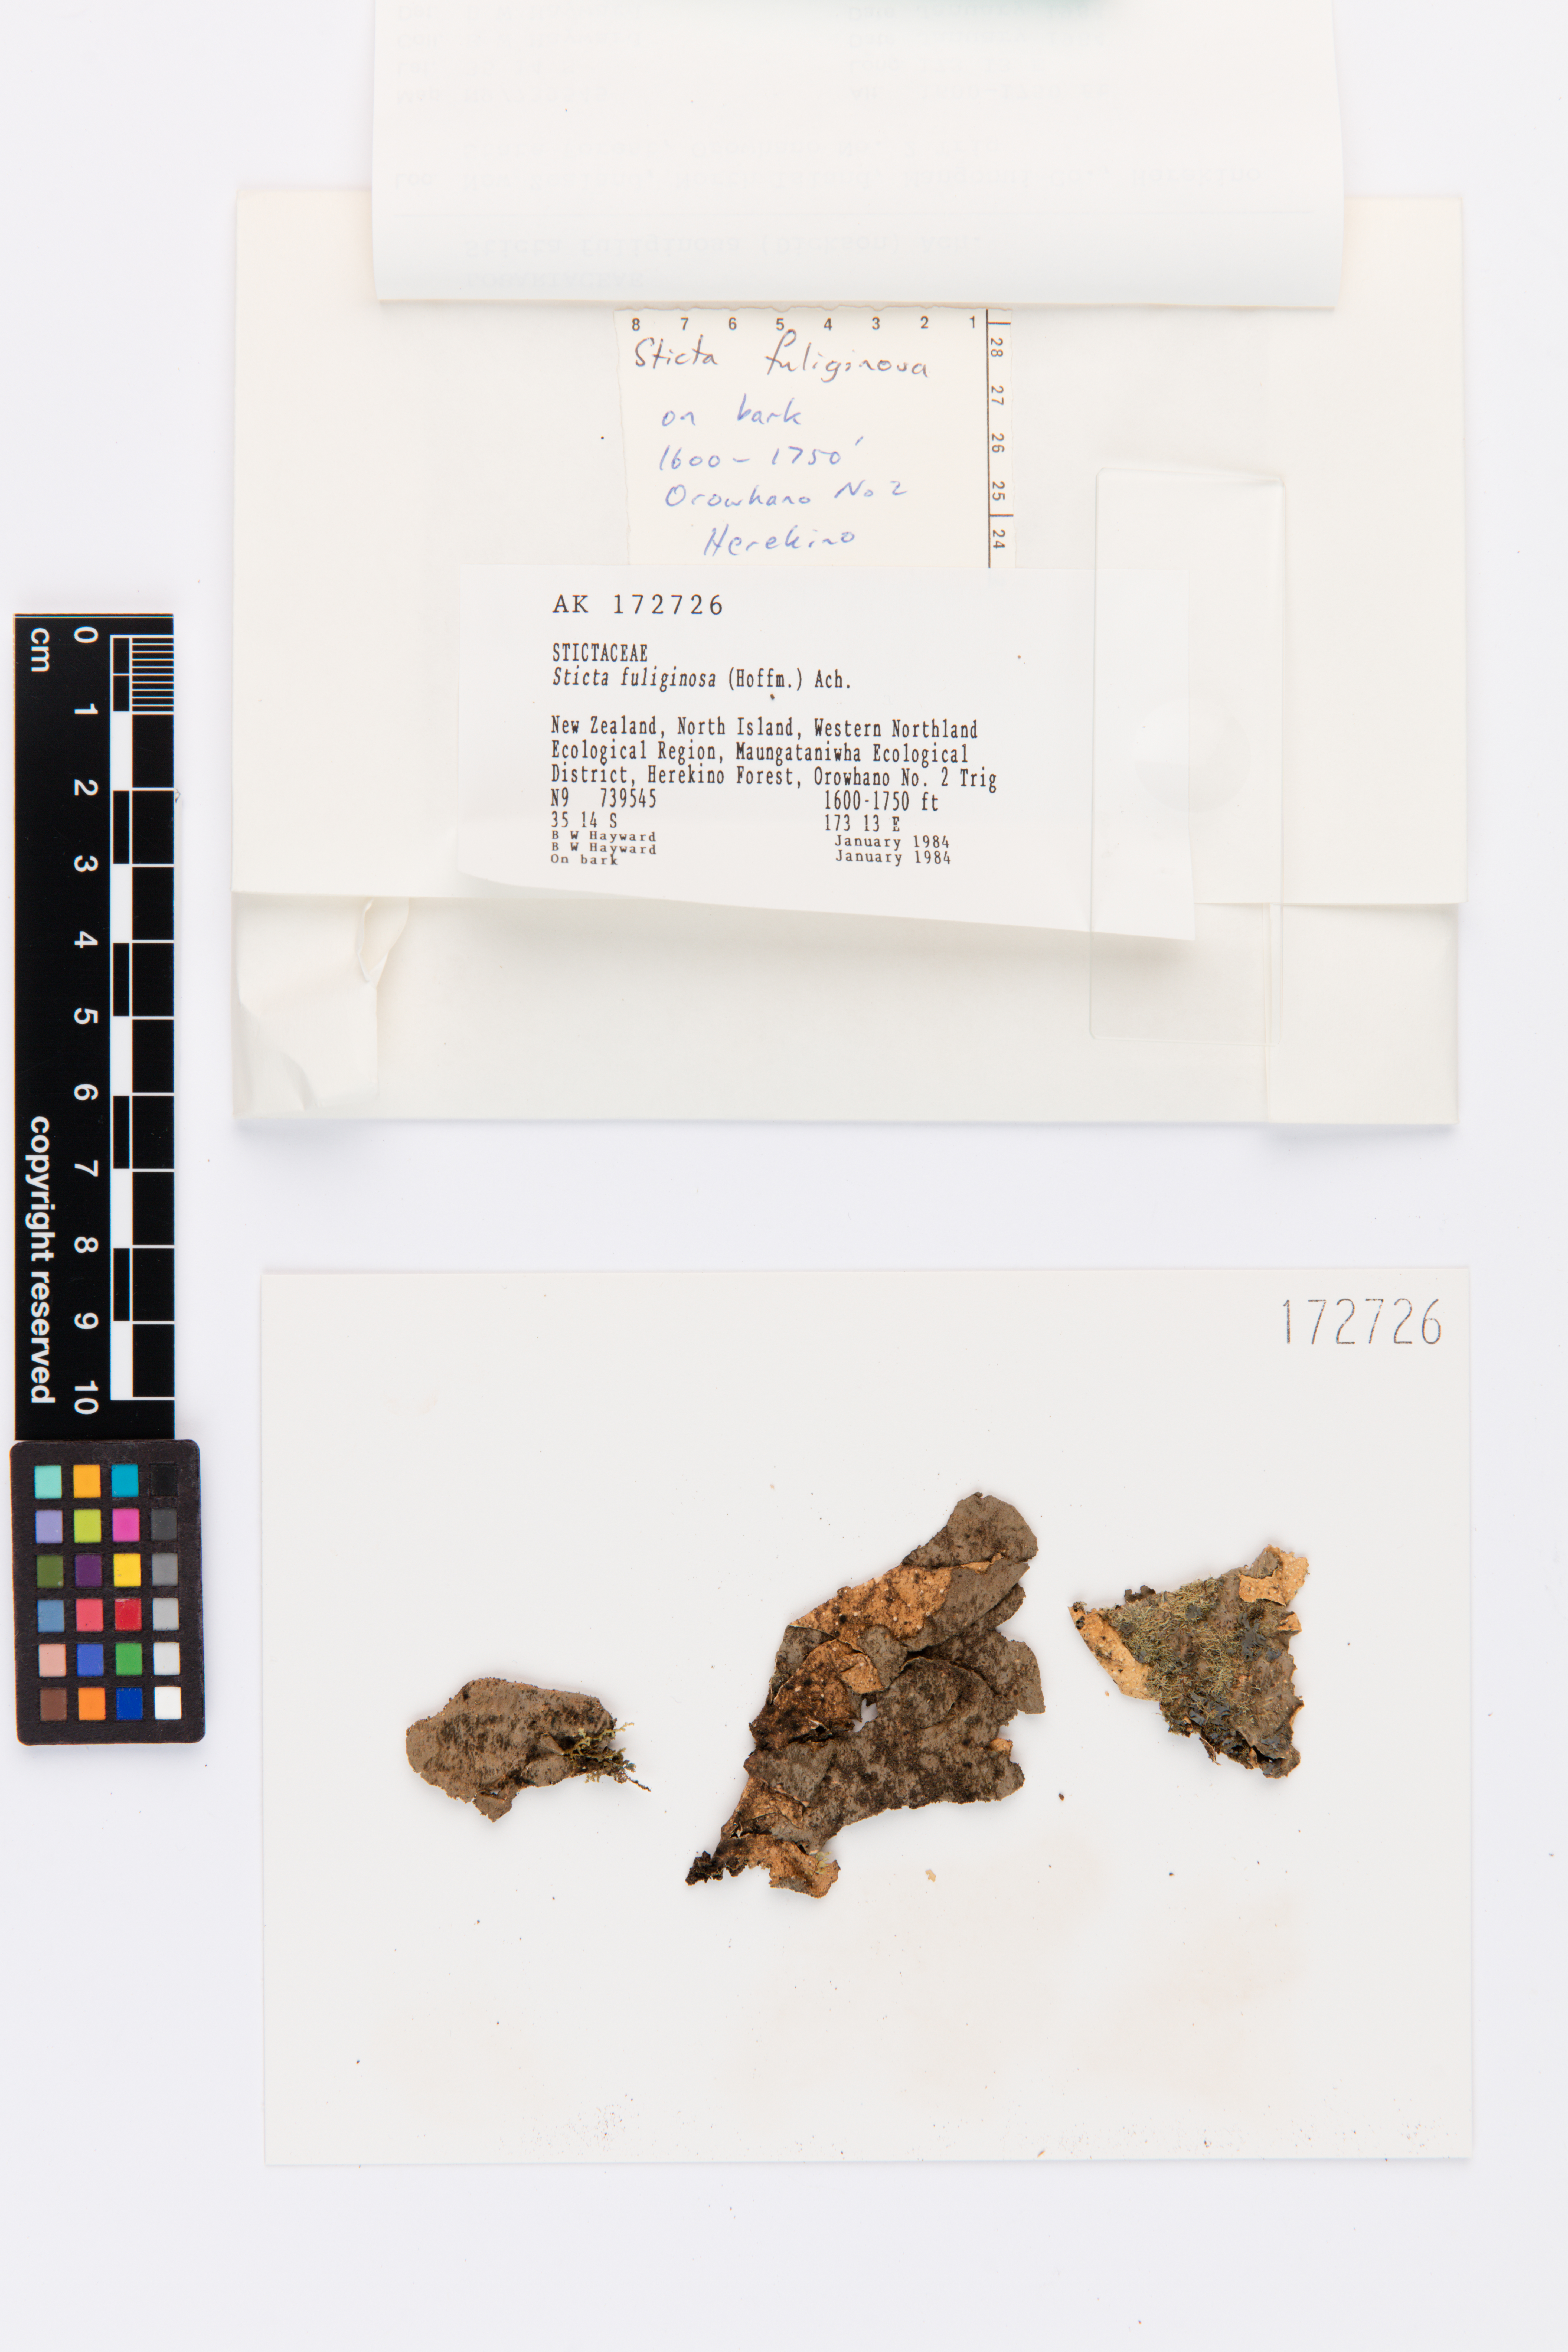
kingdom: Fungi
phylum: Ascomycota
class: Lecanoromycetes
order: Peltigerales
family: Lobariaceae
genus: Sticta
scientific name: Sticta fuliginosa
